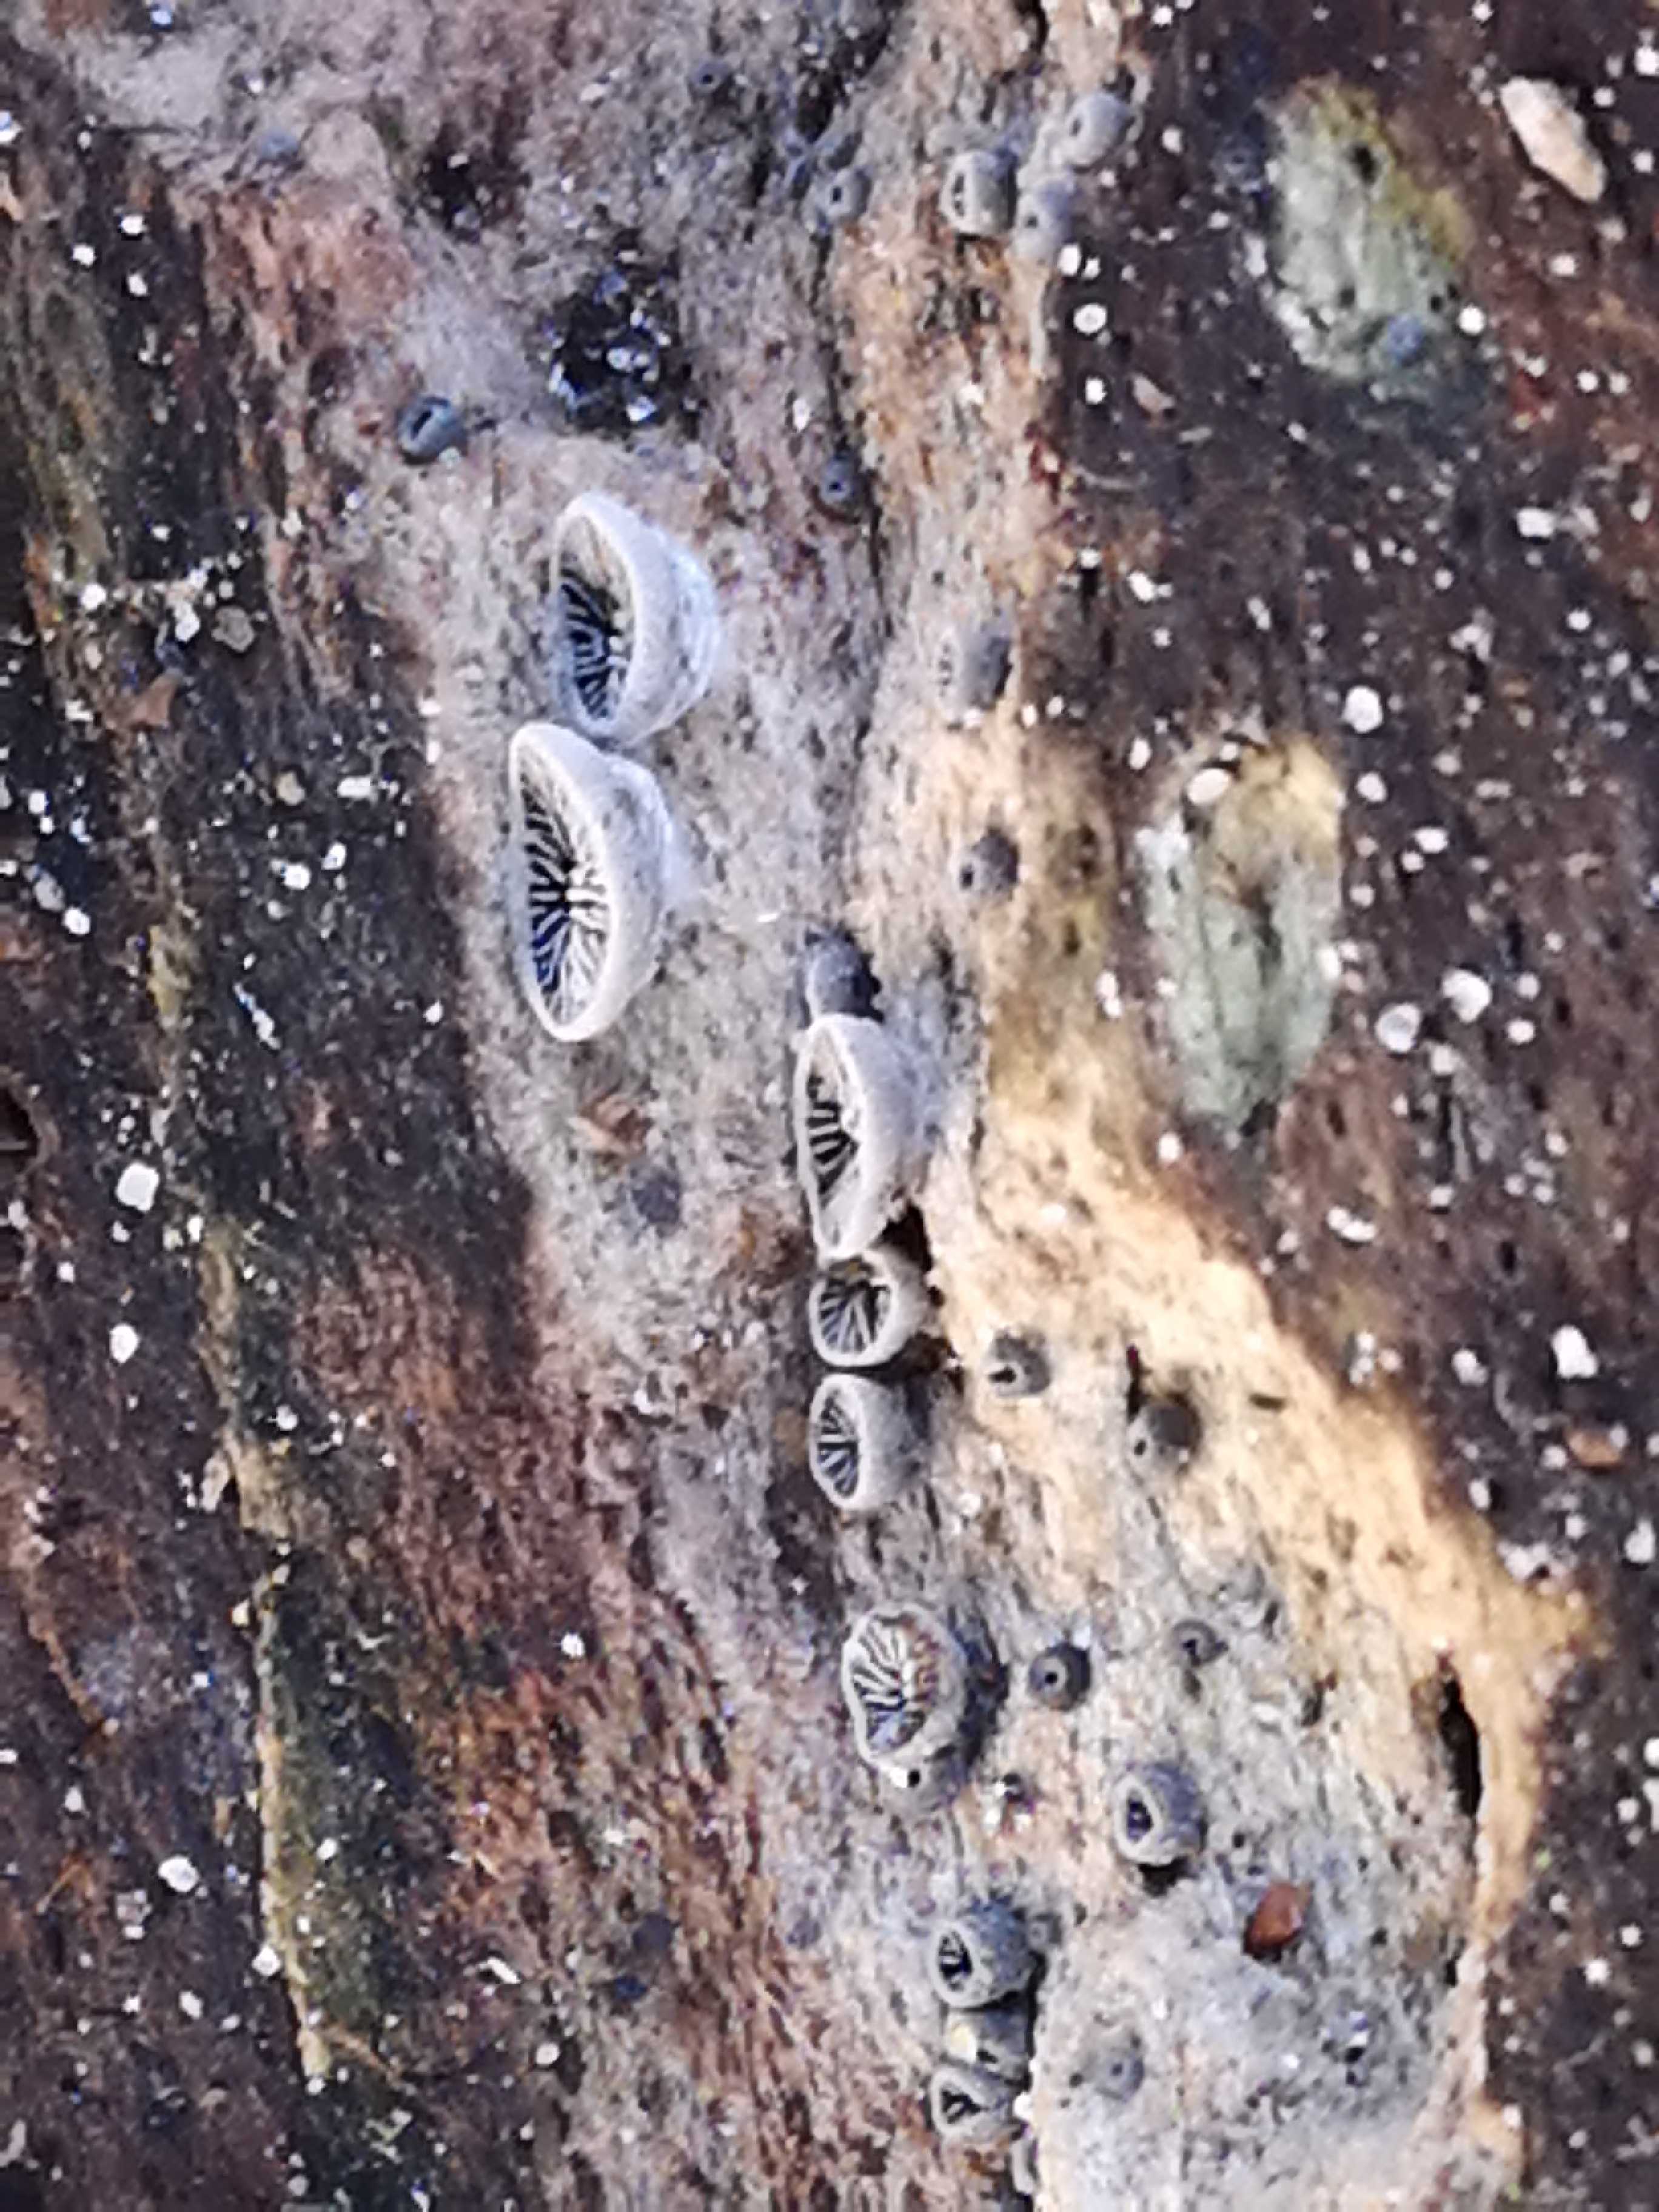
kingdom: Fungi
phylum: Basidiomycota
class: Agaricomycetes
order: Agaricales
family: Pleurotaceae
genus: Resupinatus
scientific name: Resupinatus applicatus
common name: lysfiltet barkhat
